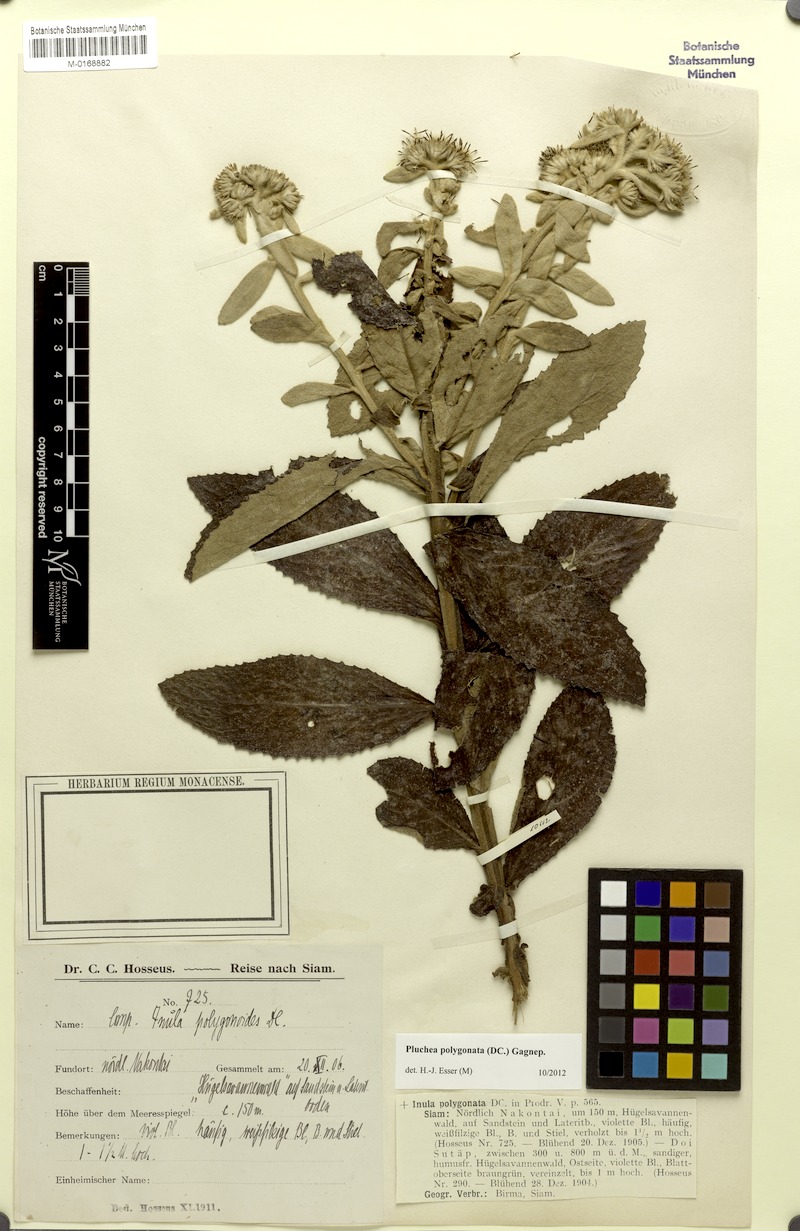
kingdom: Plantae
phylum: Tracheophyta
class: Magnoliopsida
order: Asterales
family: Asteraceae
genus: Pluchea
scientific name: Pluchea polygonata
